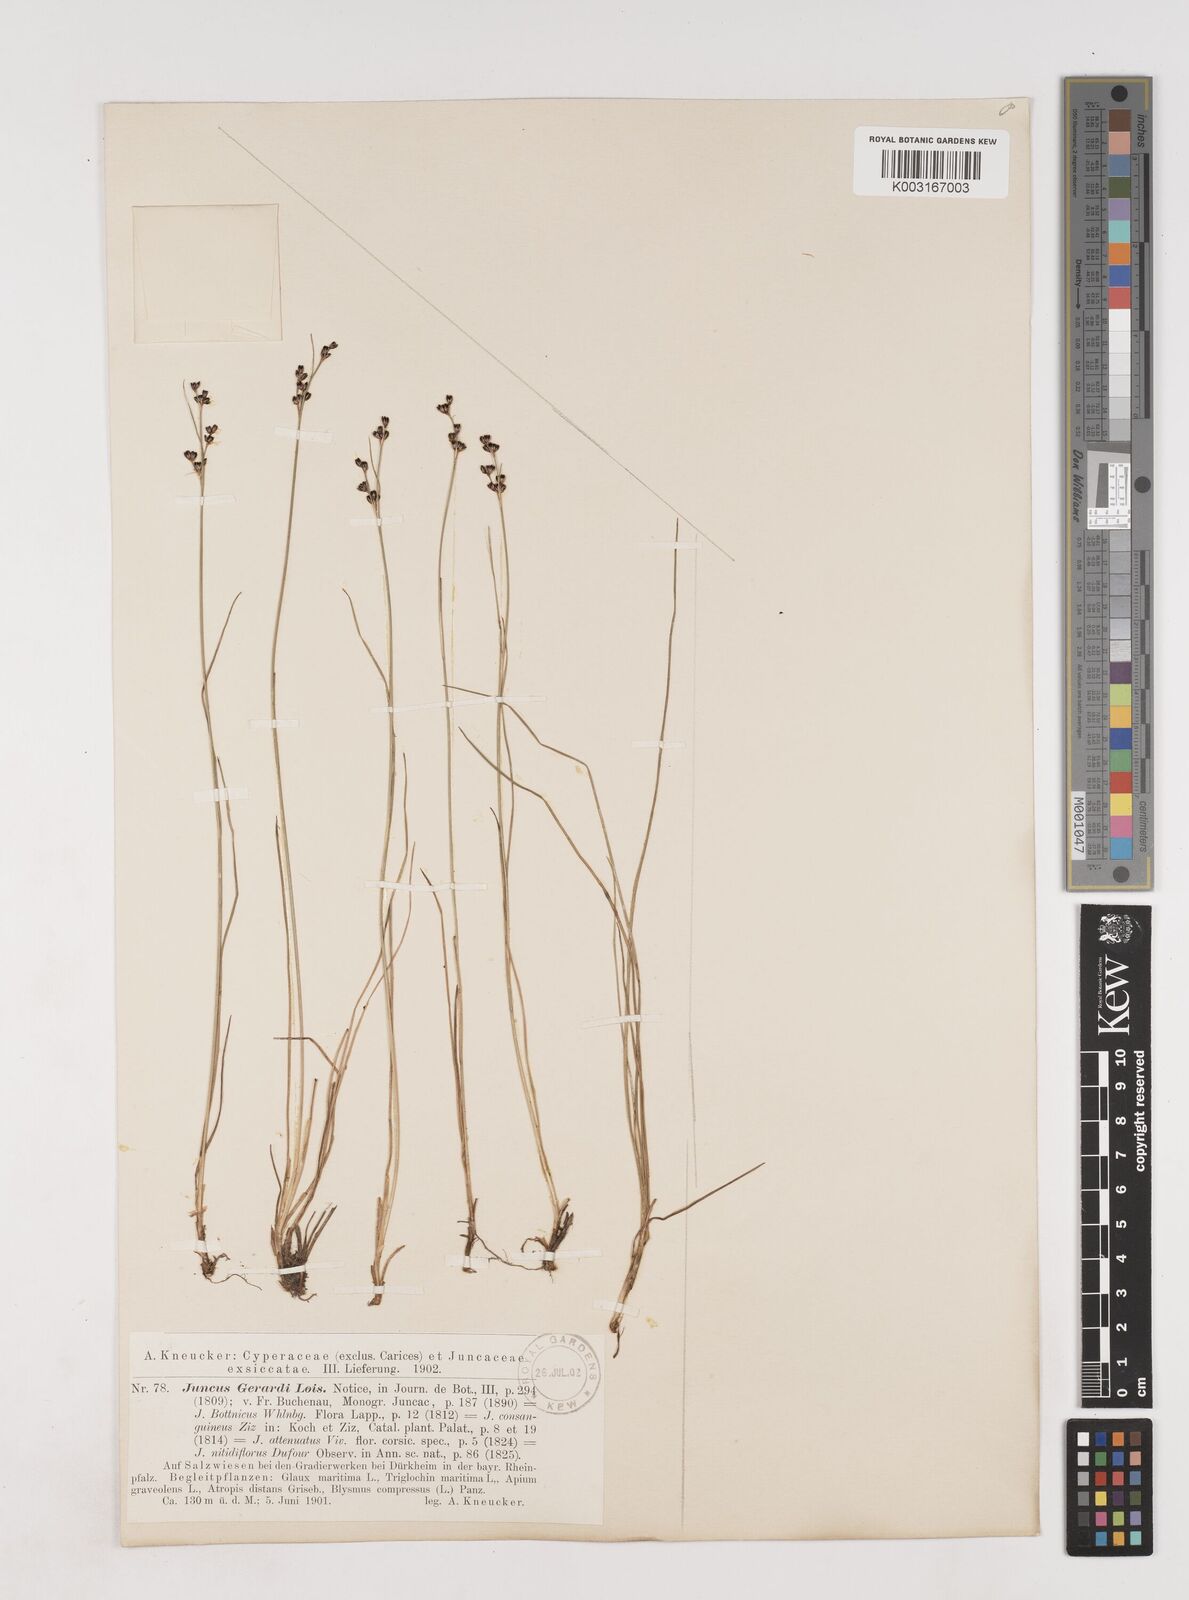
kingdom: Plantae
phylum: Tracheophyta
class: Liliopsida
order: Poales
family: Juncaceae
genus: Juncus
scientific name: Juncus gerardi
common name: Saltmarsh rush
